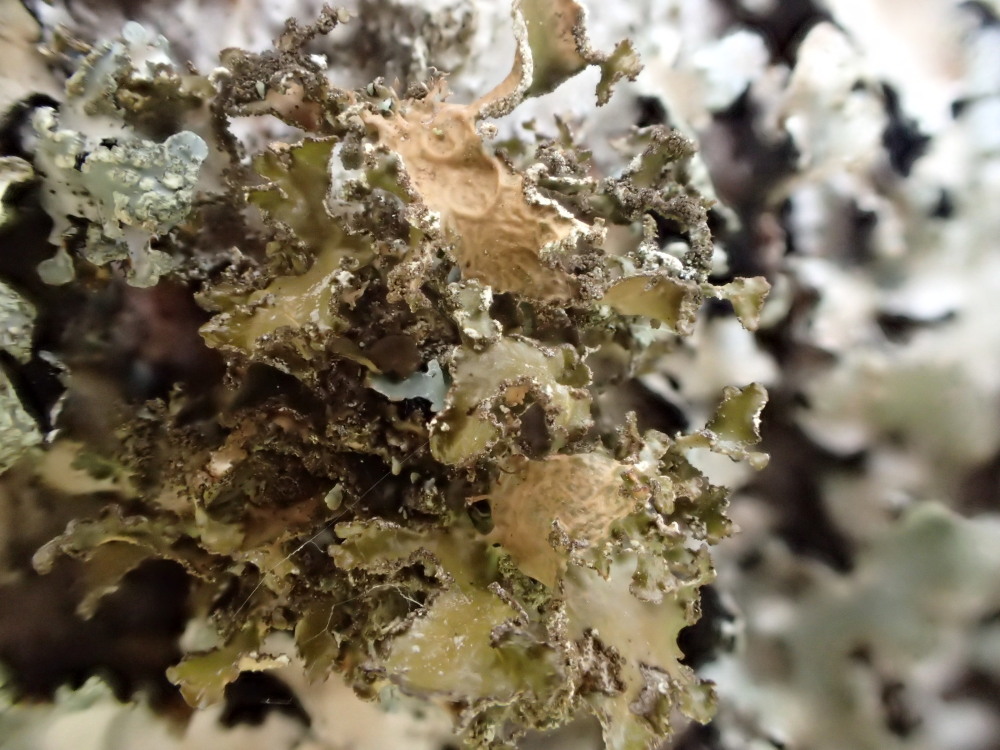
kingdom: Fungi
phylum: Ascomycota
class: Lecanoromycetes
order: Lecanorales
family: Parmeliaceae
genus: Nephromopsis
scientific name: Nephromopsis chlorophylla
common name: olivenbrun kruslav
